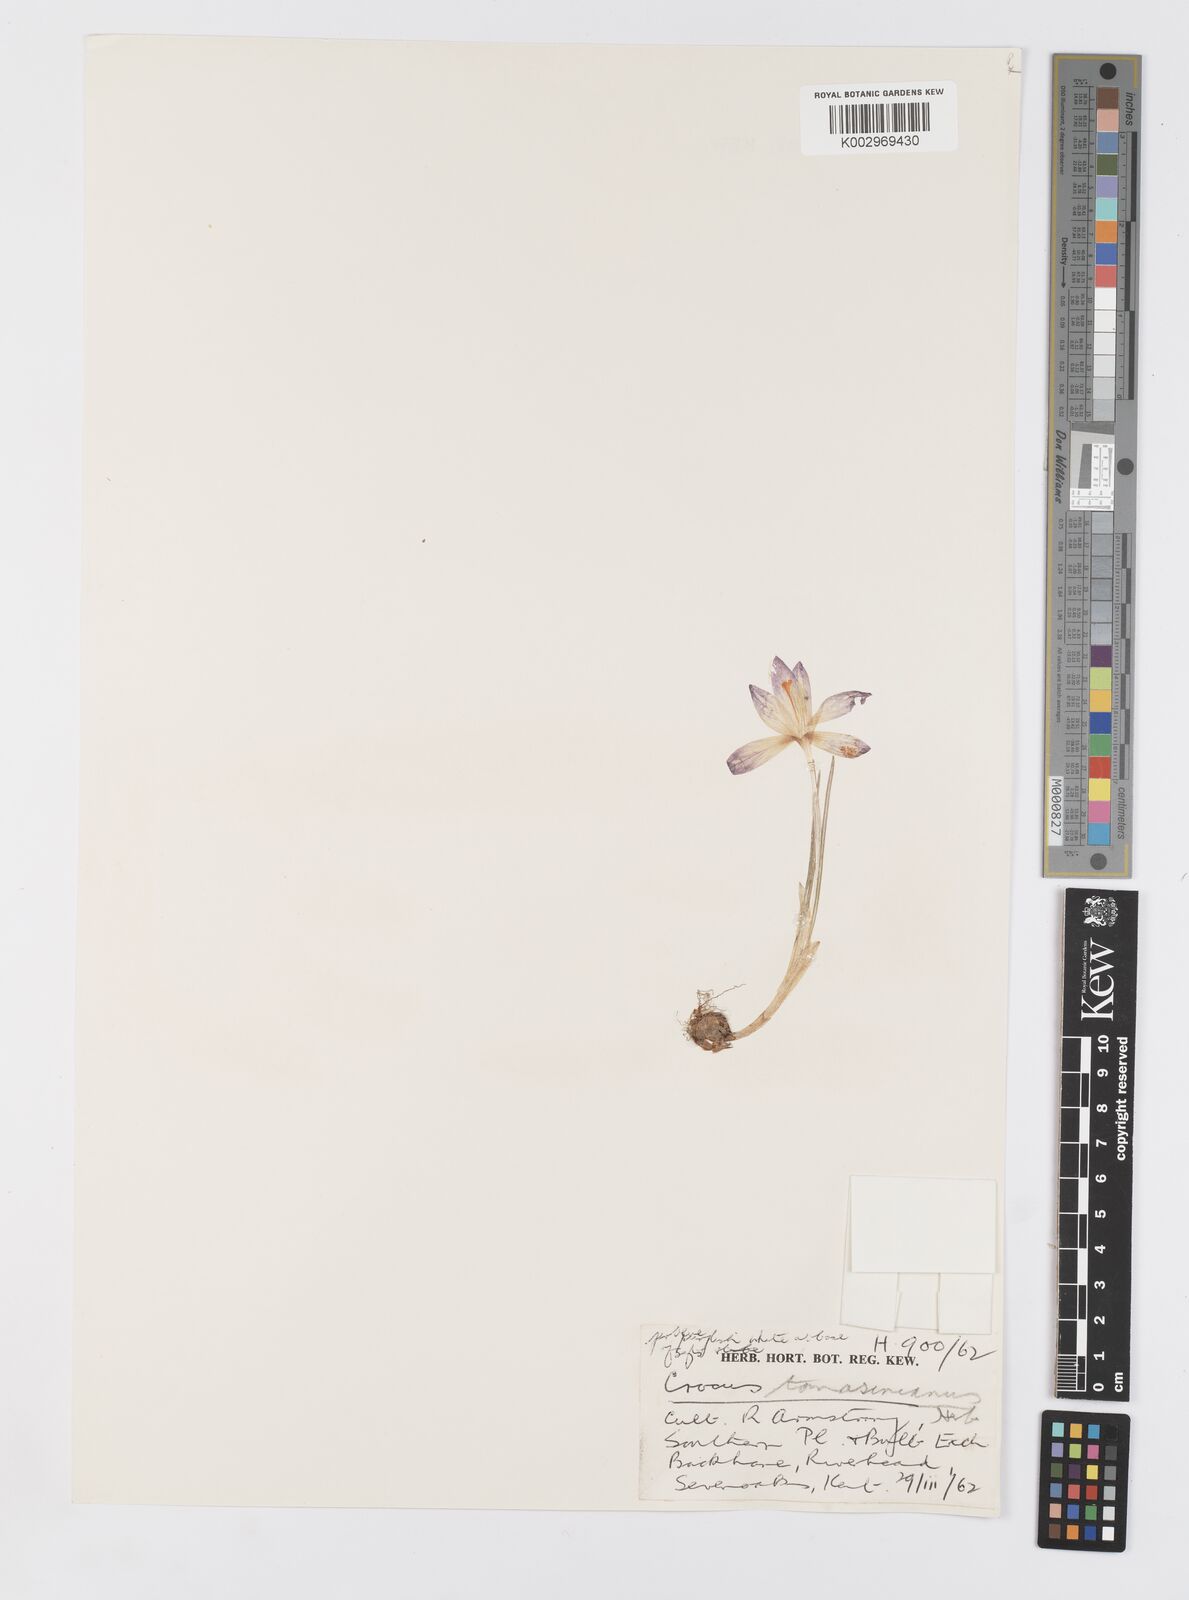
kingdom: Plantae
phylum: Tracheophyta
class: Liliopsida
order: Asparagales
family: Iridaceae
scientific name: Iridaceae
